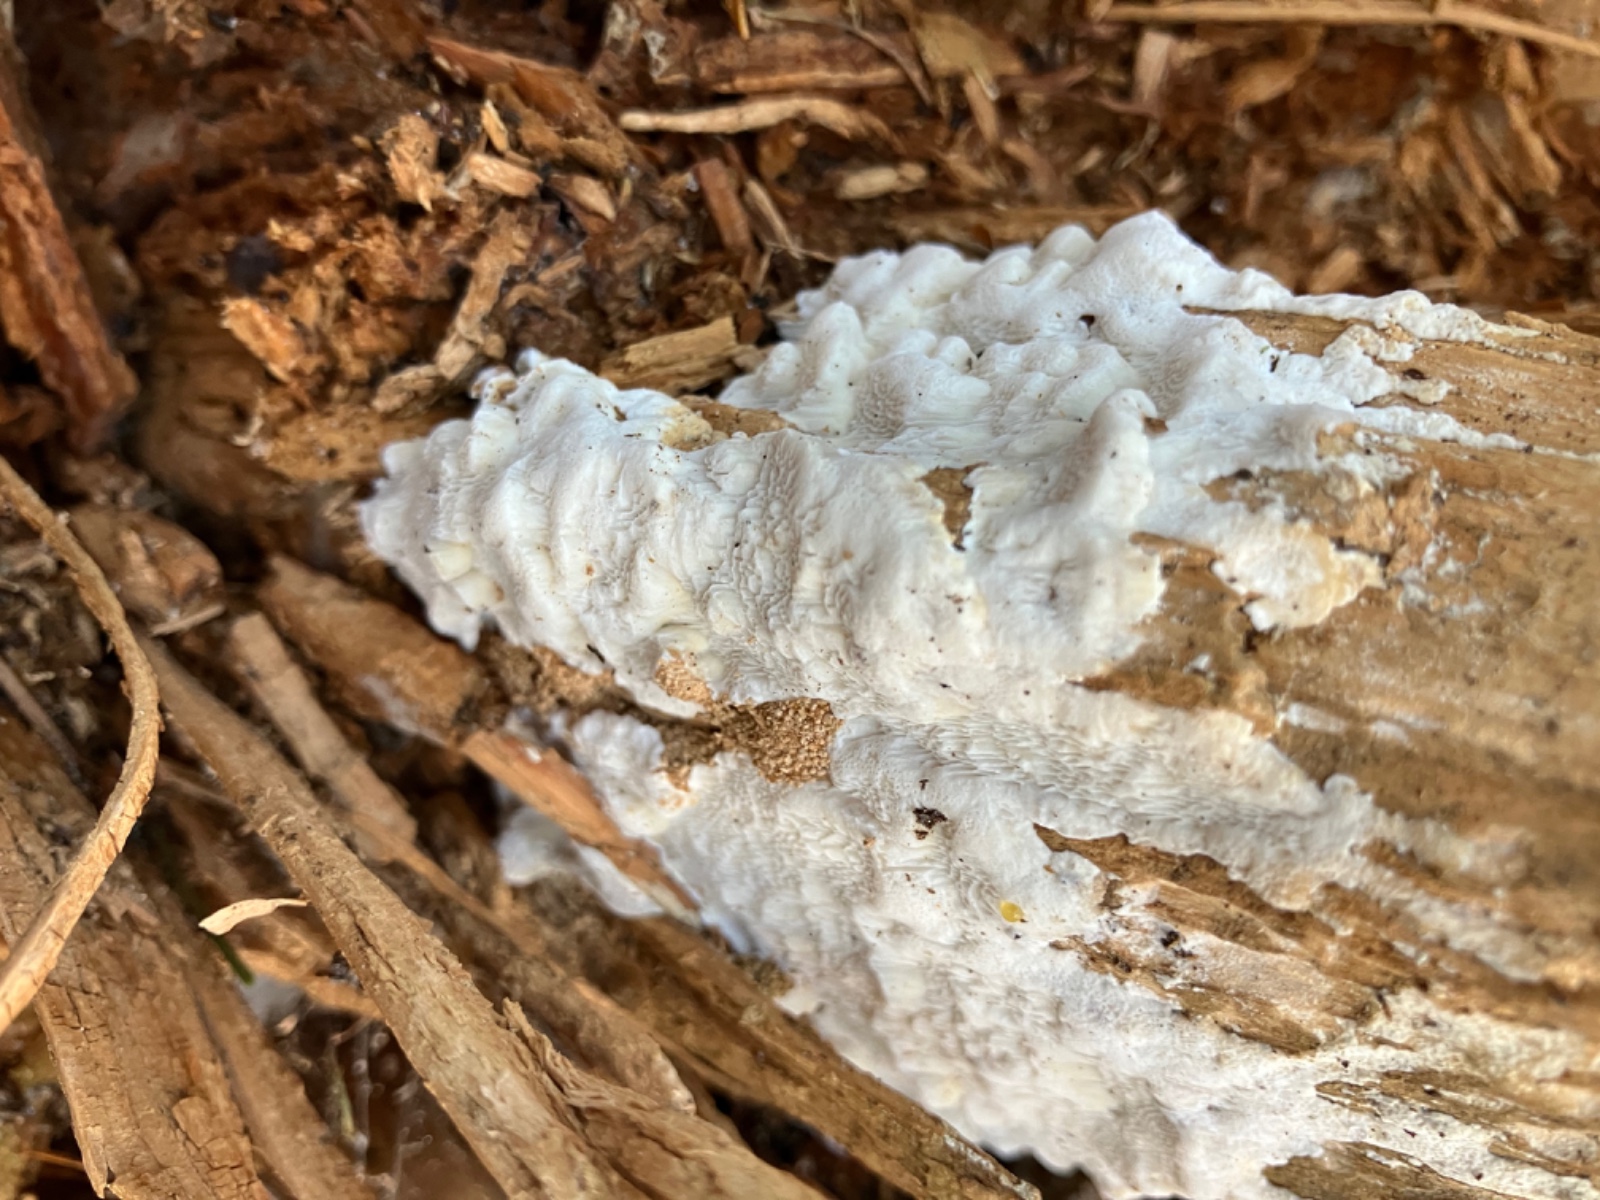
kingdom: Fungi
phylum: Basidiomycota
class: Agaricomycetes
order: Polyporales
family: Fomitopsidaceae
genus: Neoantrodia
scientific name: Neoantrodia serialis
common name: række-sejporesvamp
